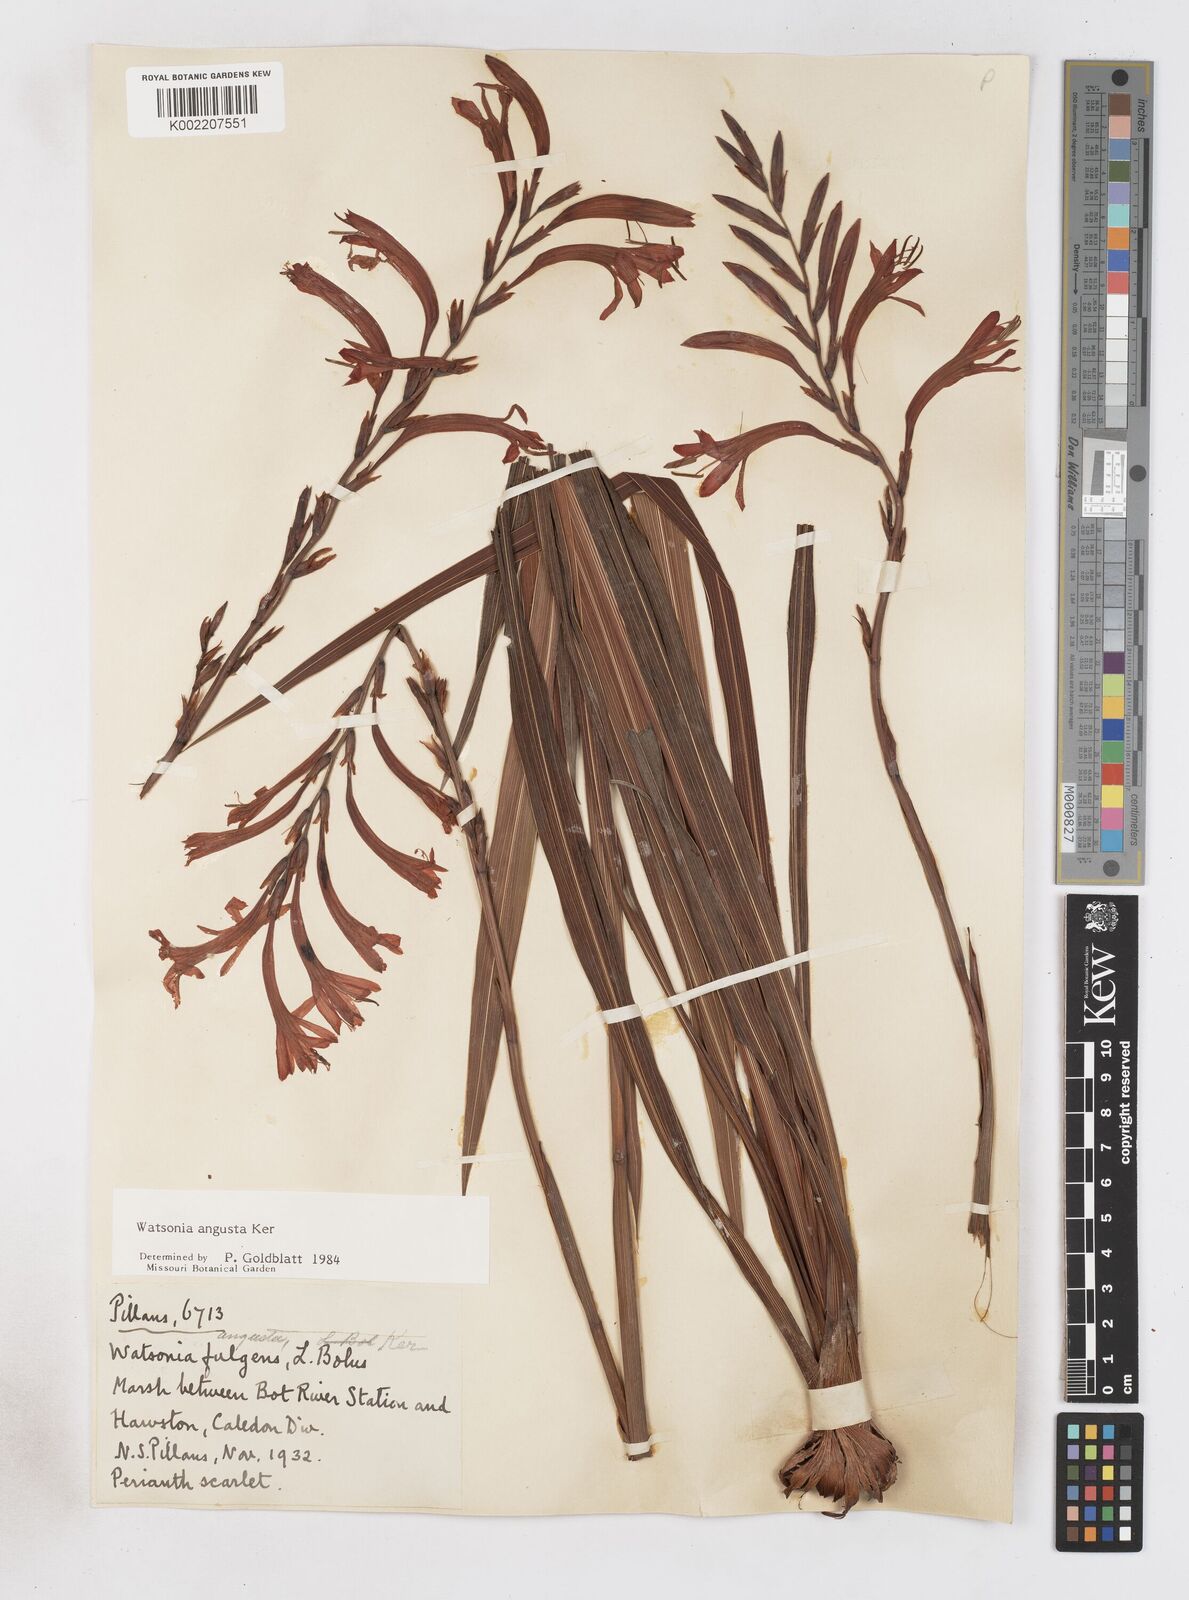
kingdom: Plantae
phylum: Tracheophyta
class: Liliopsida
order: Asparagales
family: Iridaceae
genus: Watsonia
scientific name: Watsonia angusta
